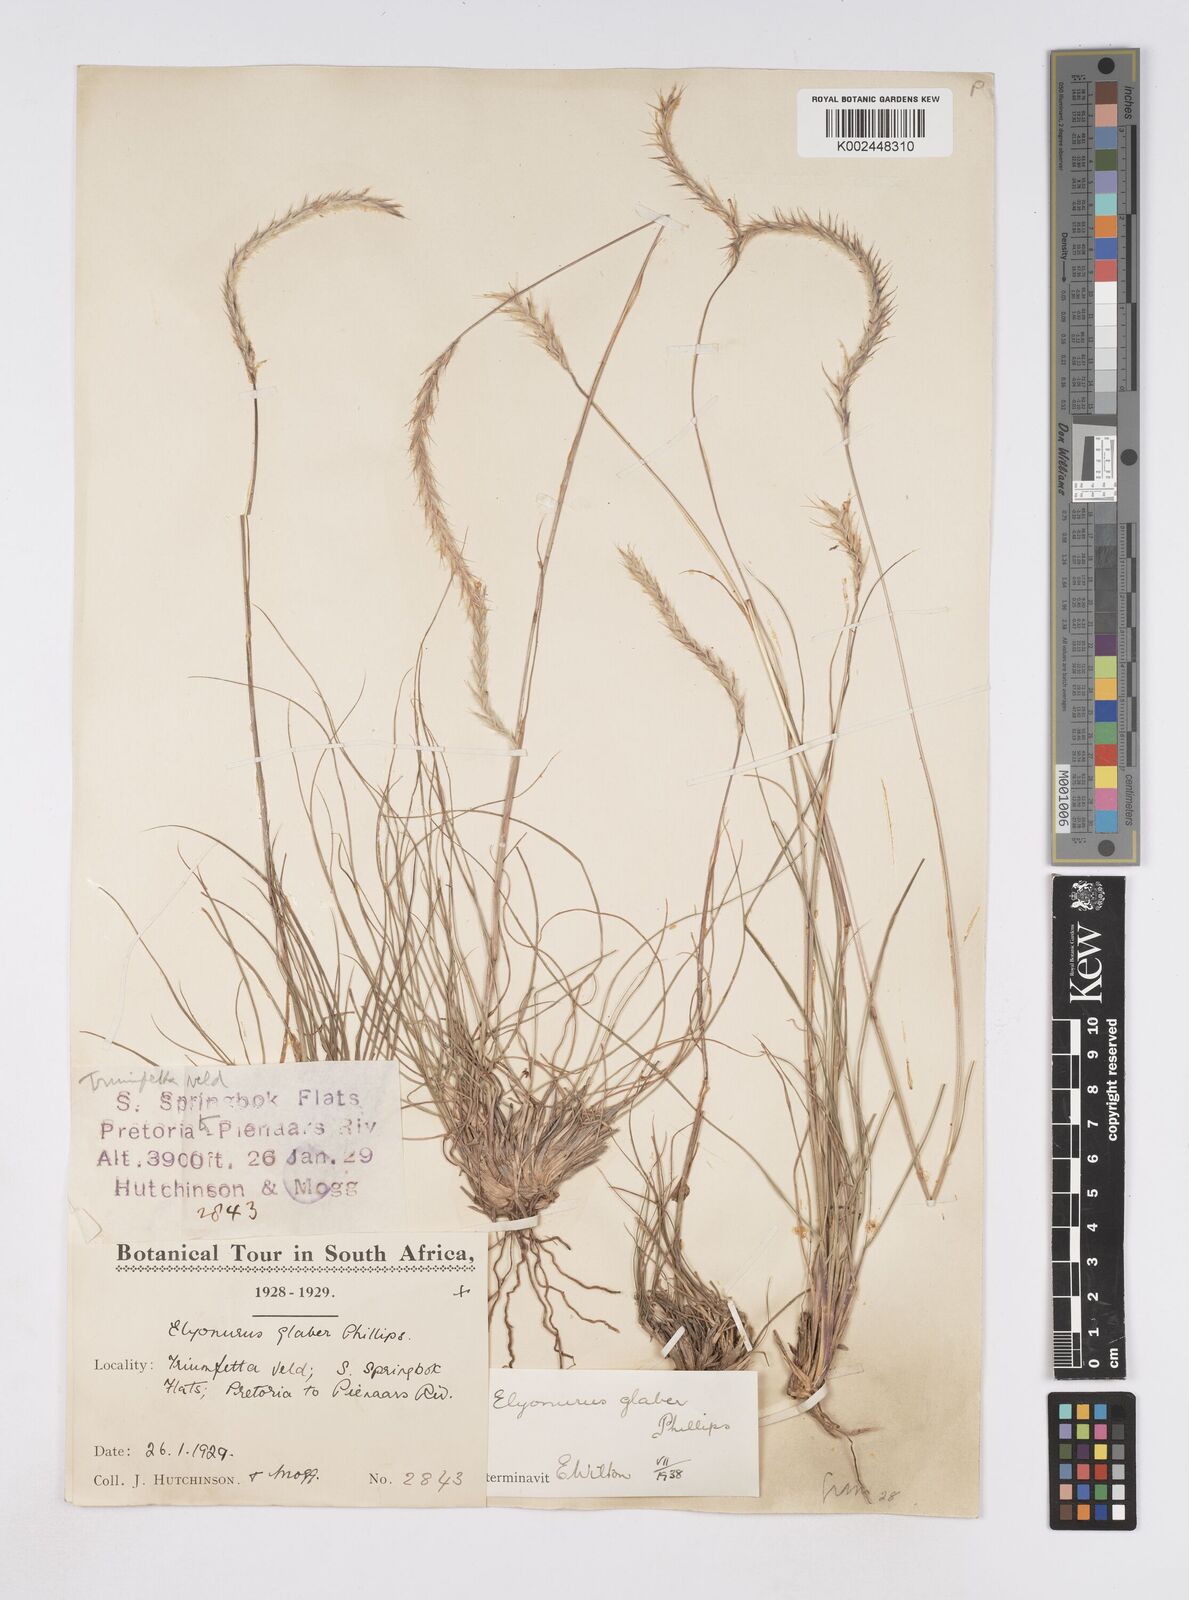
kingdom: Plantae
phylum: Tracheophyta
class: Liliopsida
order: Poales
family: Poaceae
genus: Elionurus
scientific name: Elionurus muticus
